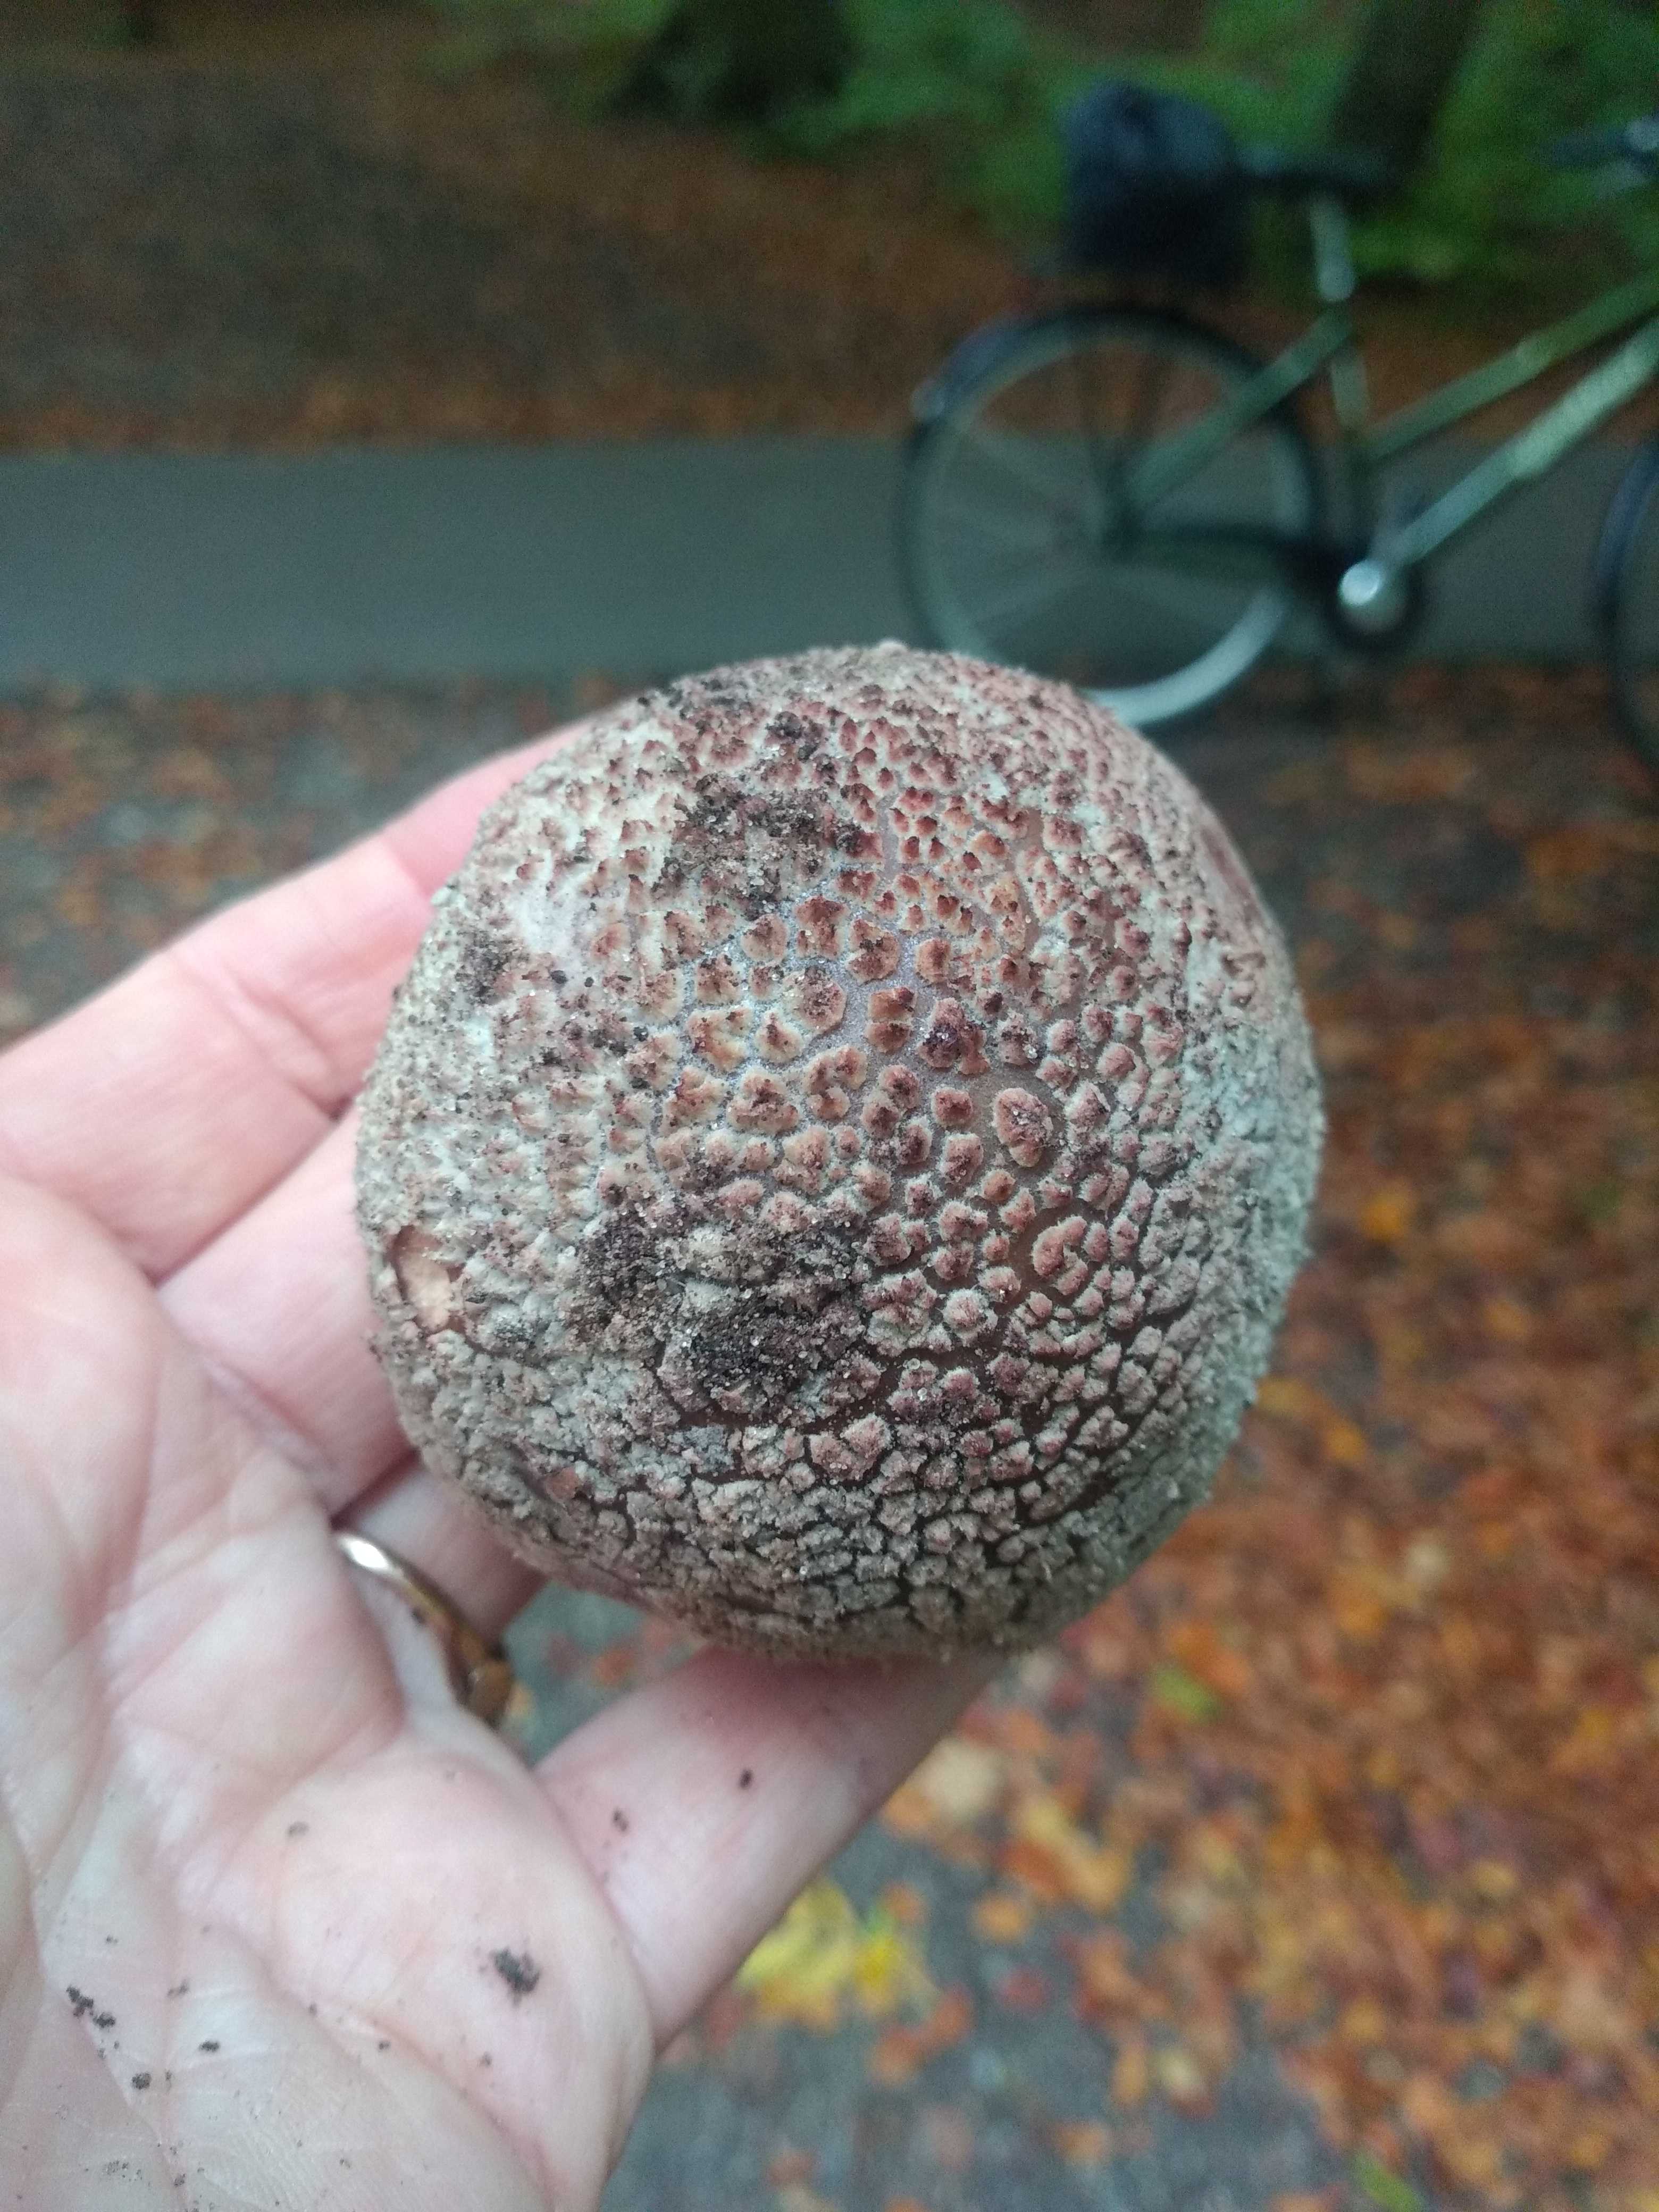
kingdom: Fungi
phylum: Basidiomycota
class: Agaricomycetes
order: Agaricales
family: Amanitaceae
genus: Amanita
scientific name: Amanita rubescens
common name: rødmende fluesvamp
